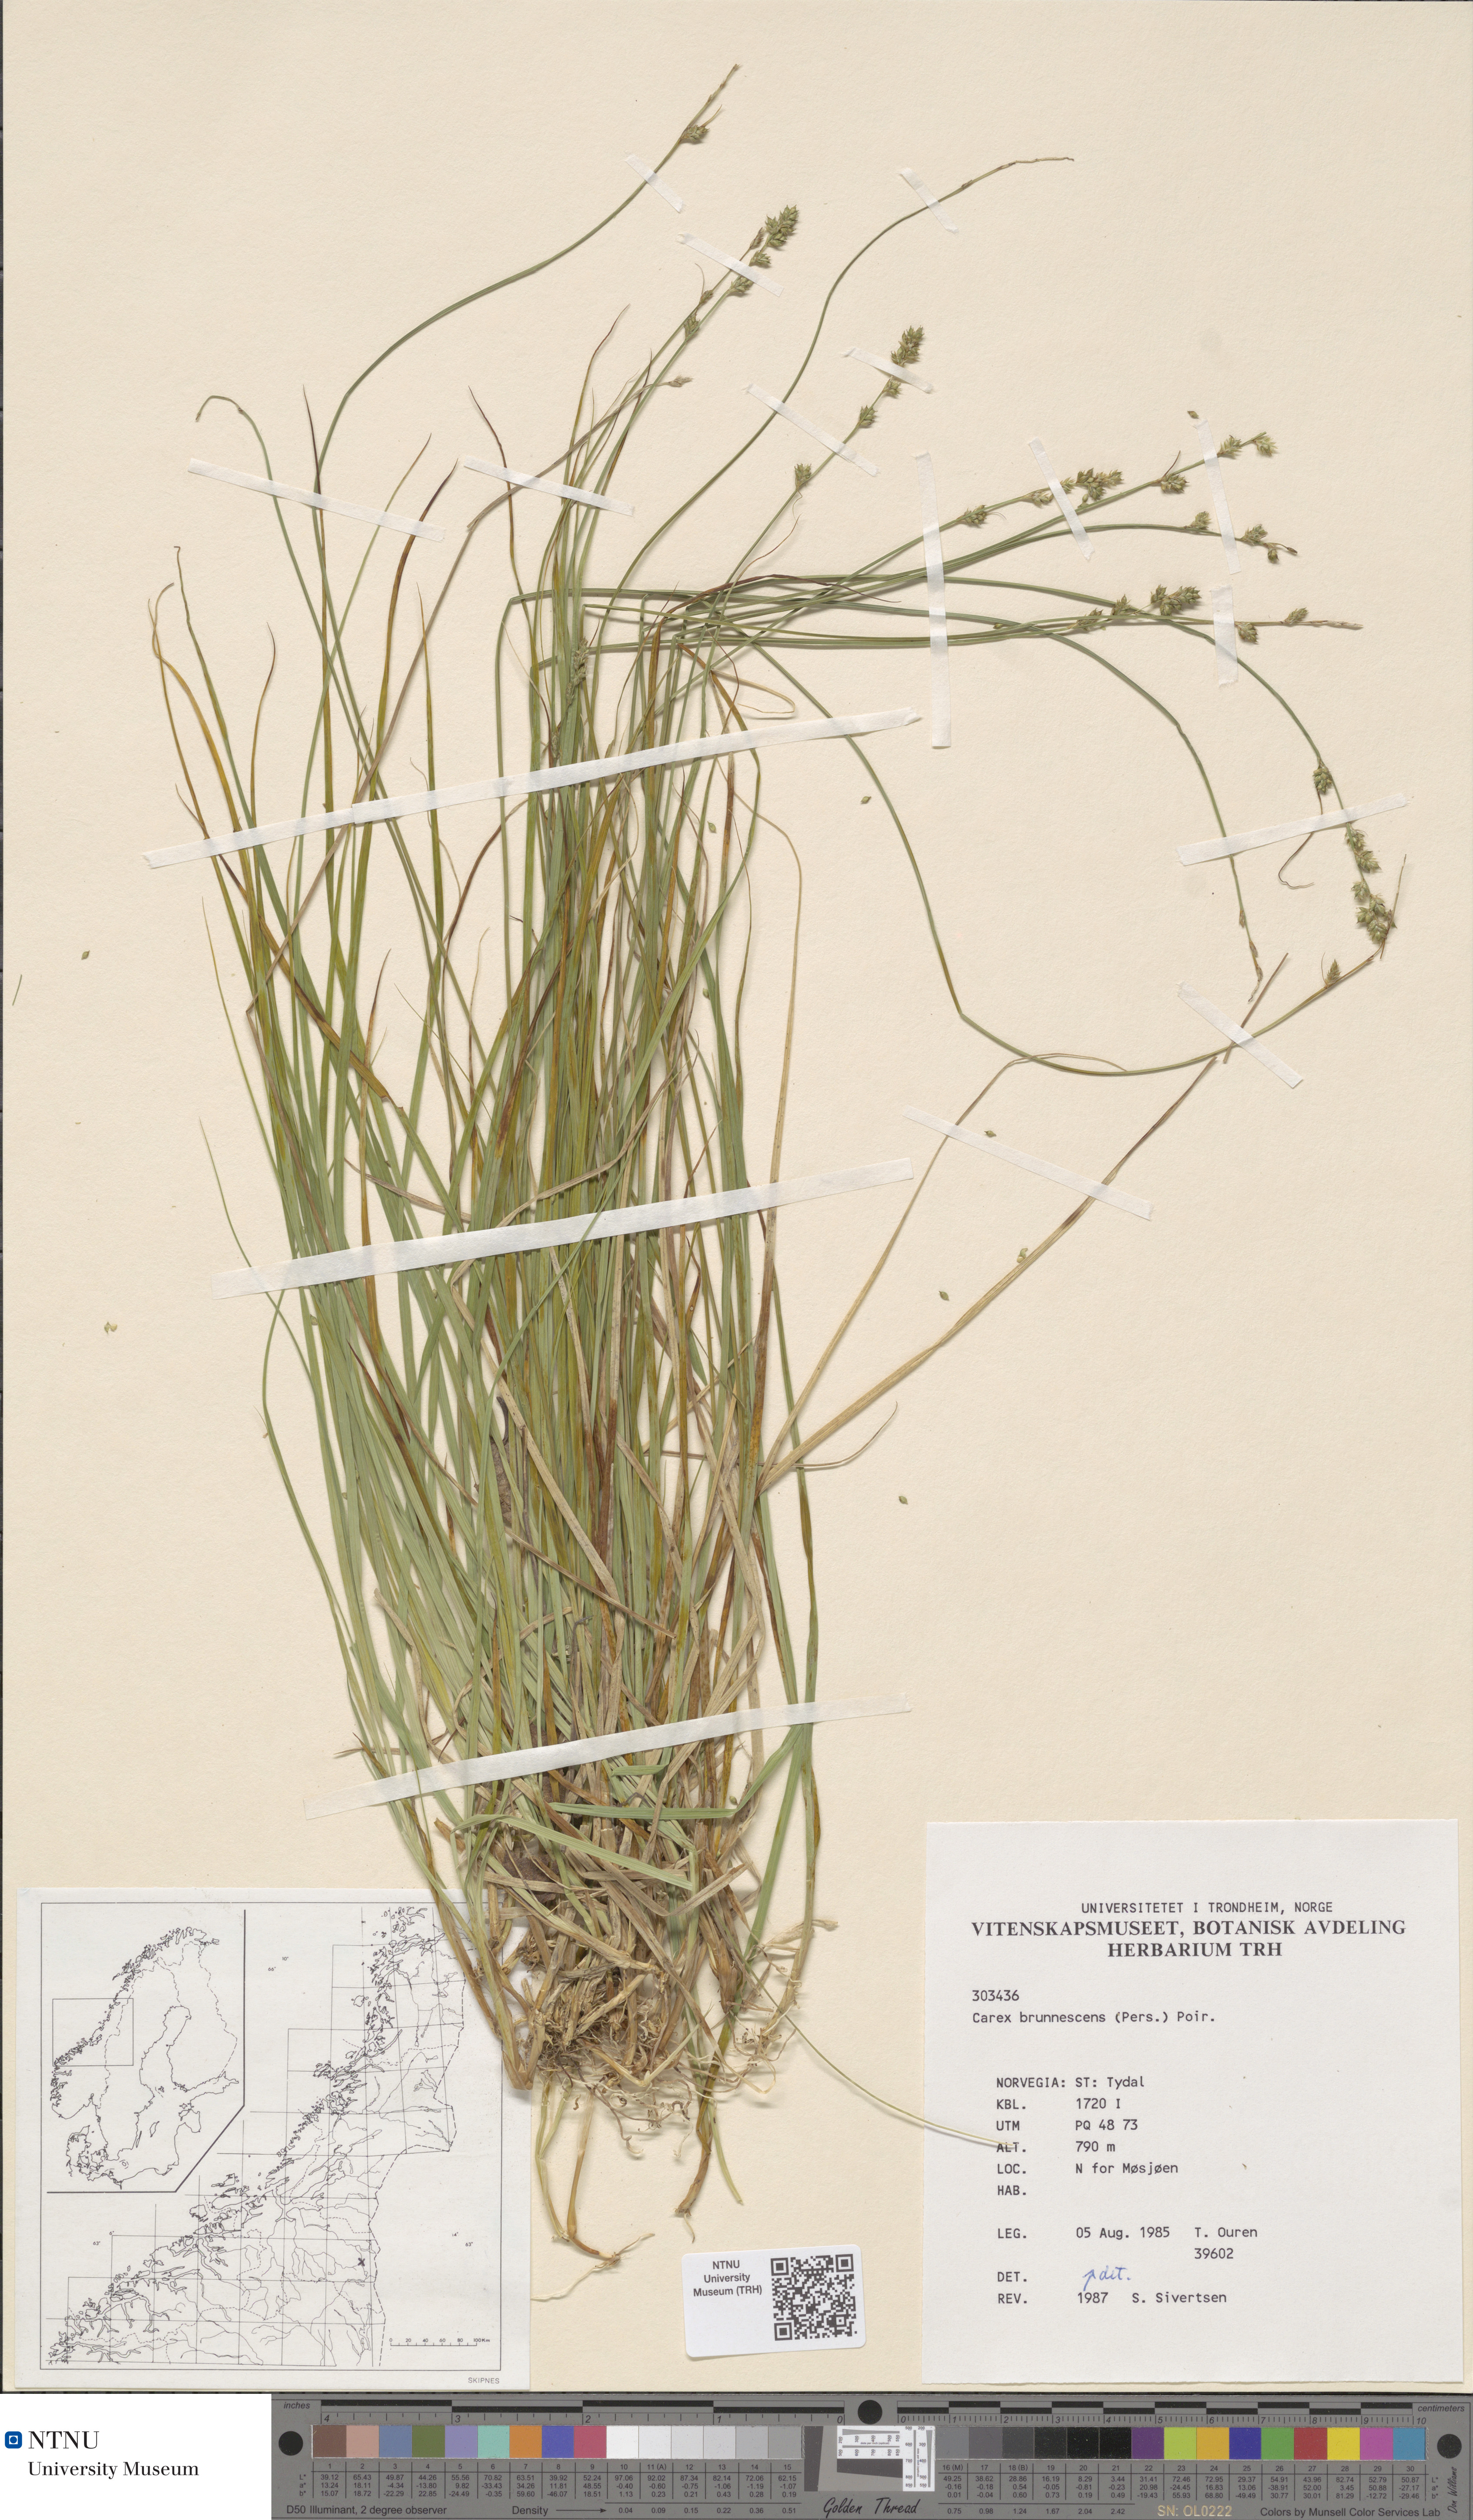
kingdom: Plantae
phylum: Tracheophyta
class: Liliopsida
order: Poales
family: Cyperaceae
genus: Carex
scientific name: Carex brunnescens
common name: Brown sedge
